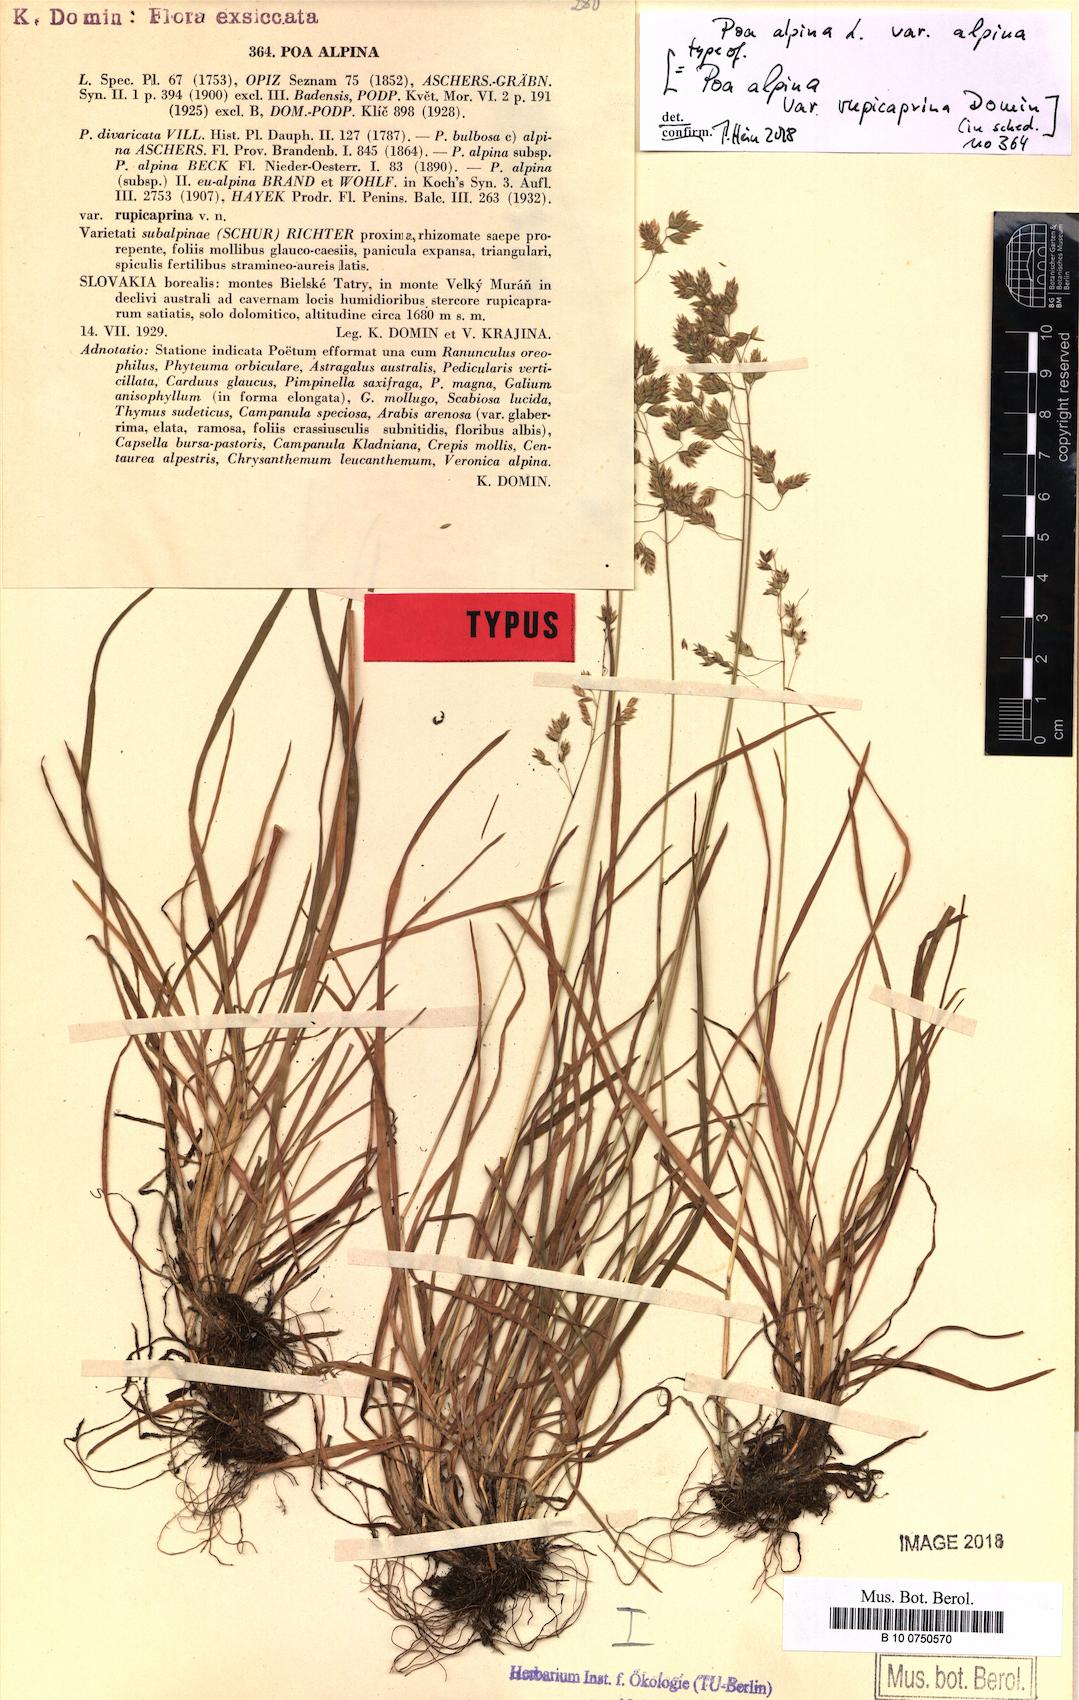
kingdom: Plantae
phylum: Tracheophyta
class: Liliopsida
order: Poales
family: Poaceae
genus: Poa
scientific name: Poa alpina
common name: Alpine bluegrass
